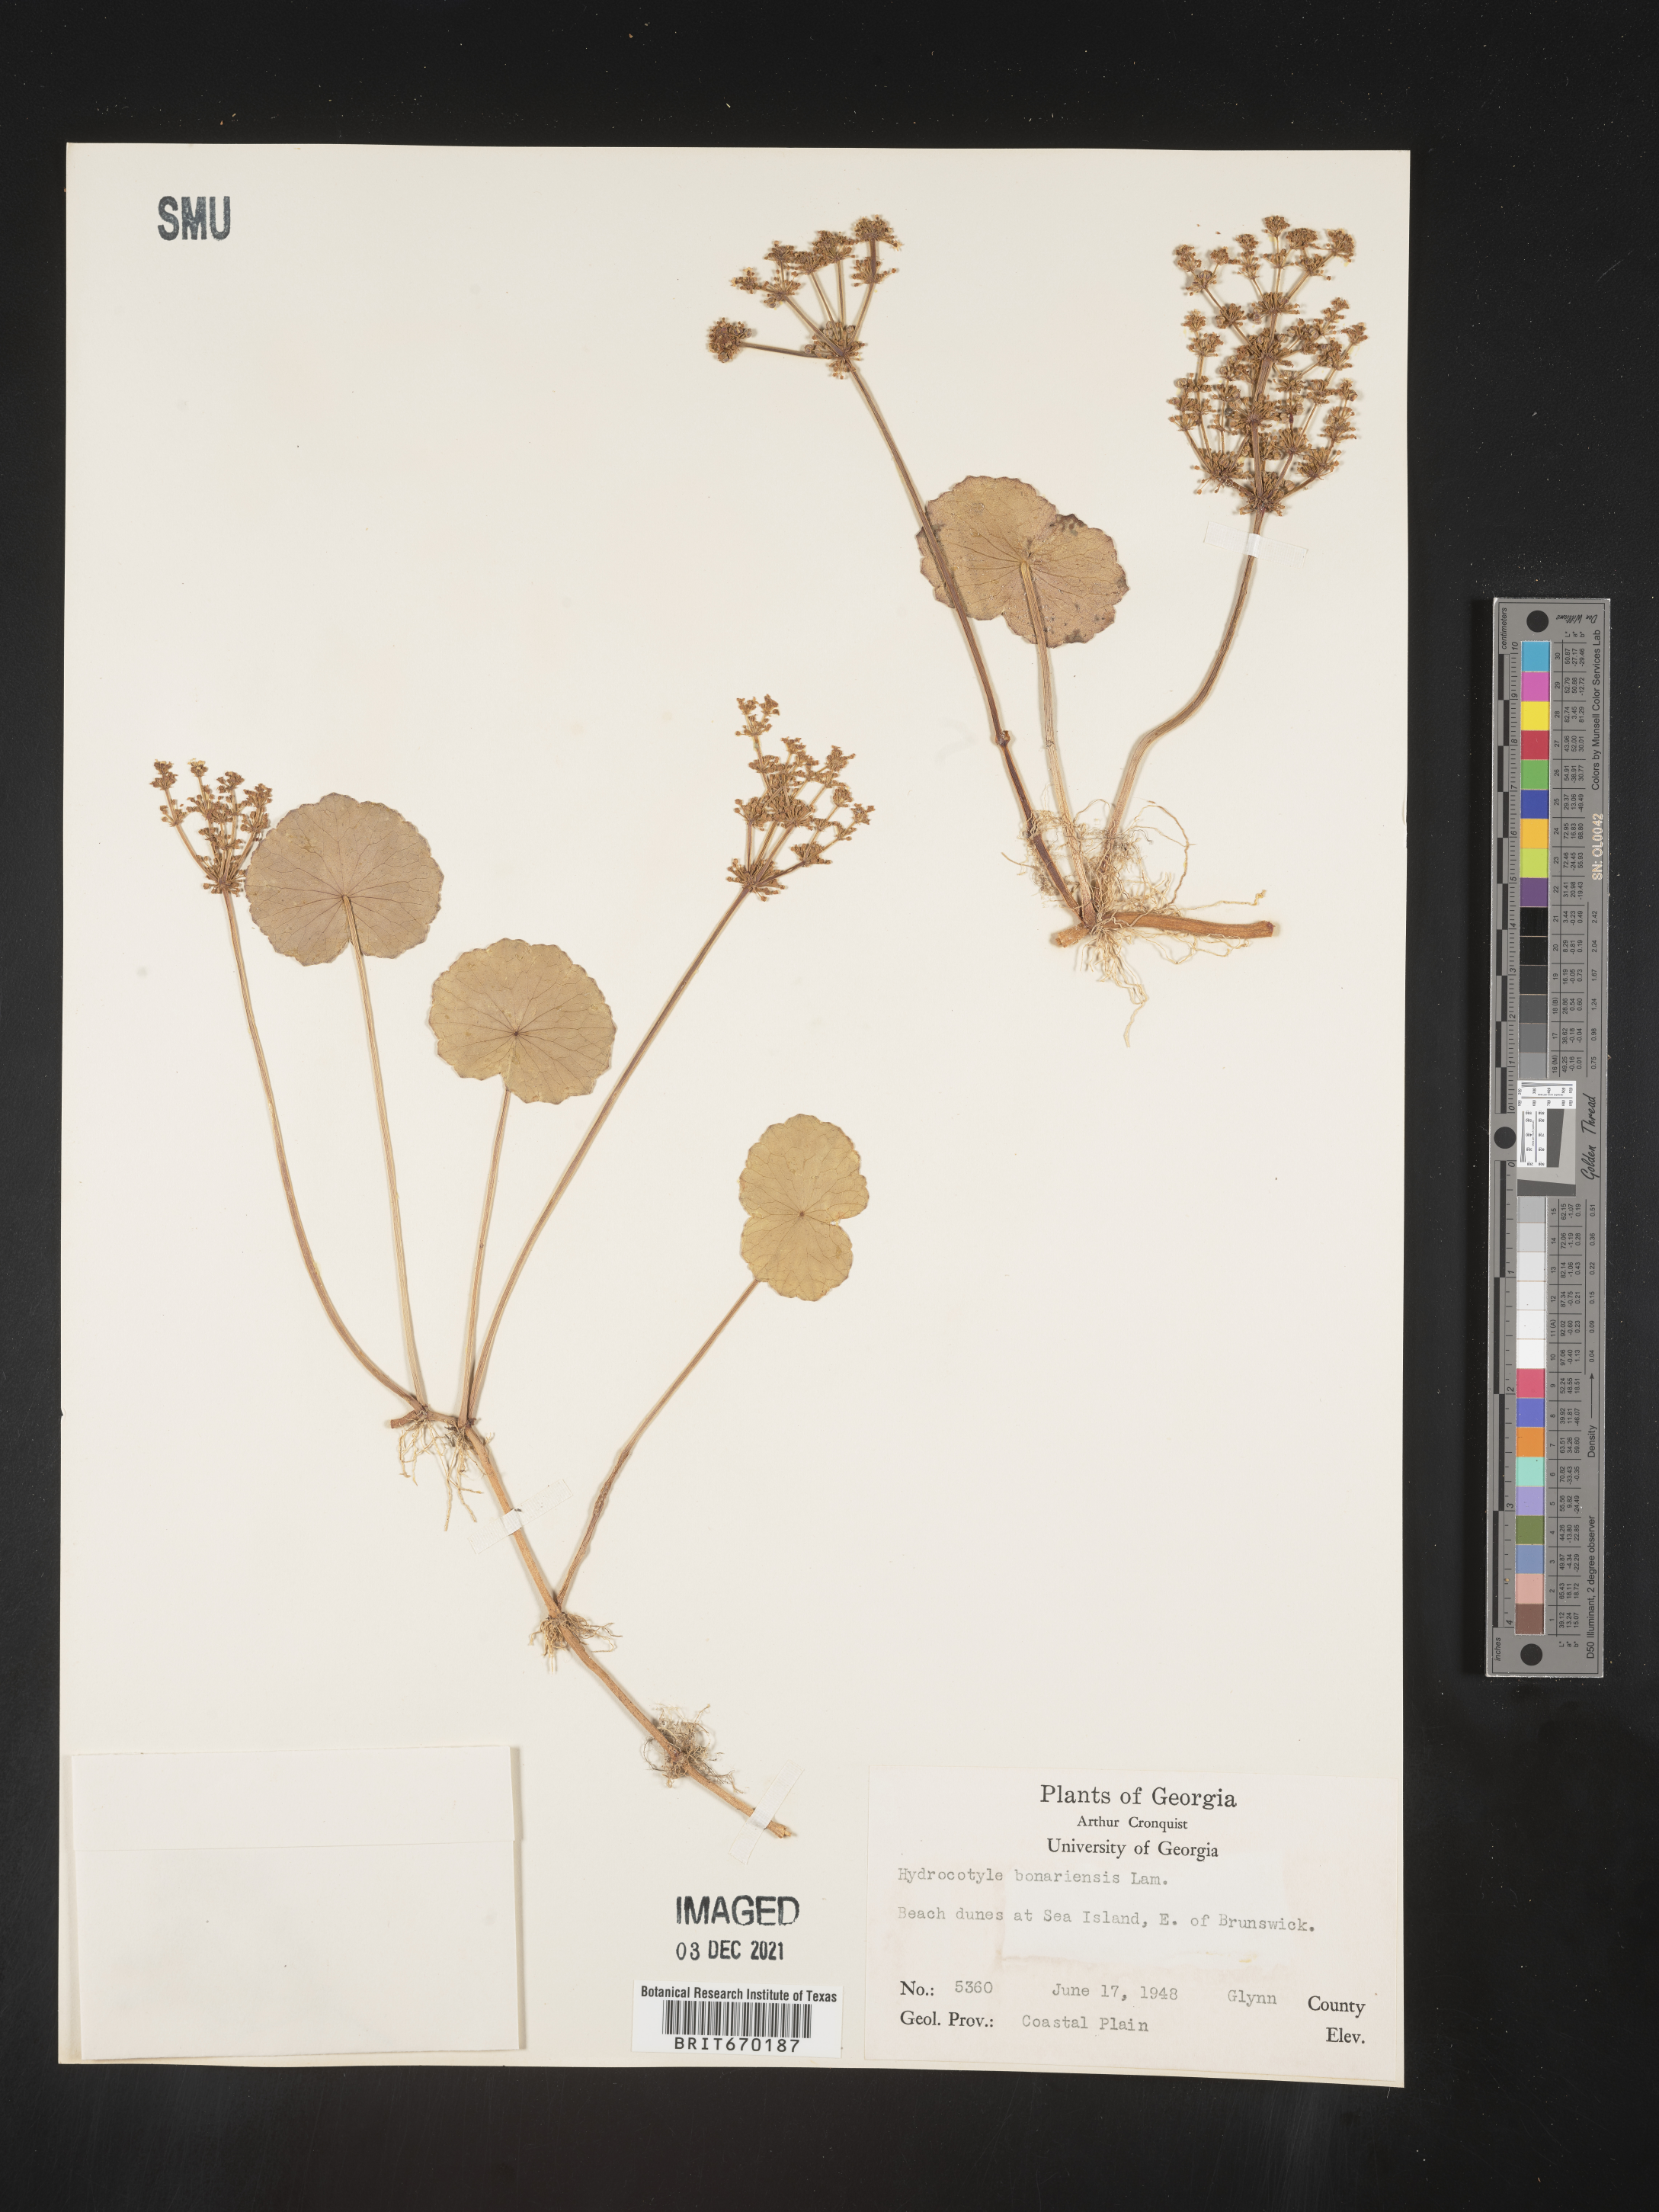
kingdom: Plantae
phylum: Tracheophyta
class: Magnoliopsida
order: Apiales
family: Araliaceae
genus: Hydrocotyle
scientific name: Hydrocotyle bonariensis
